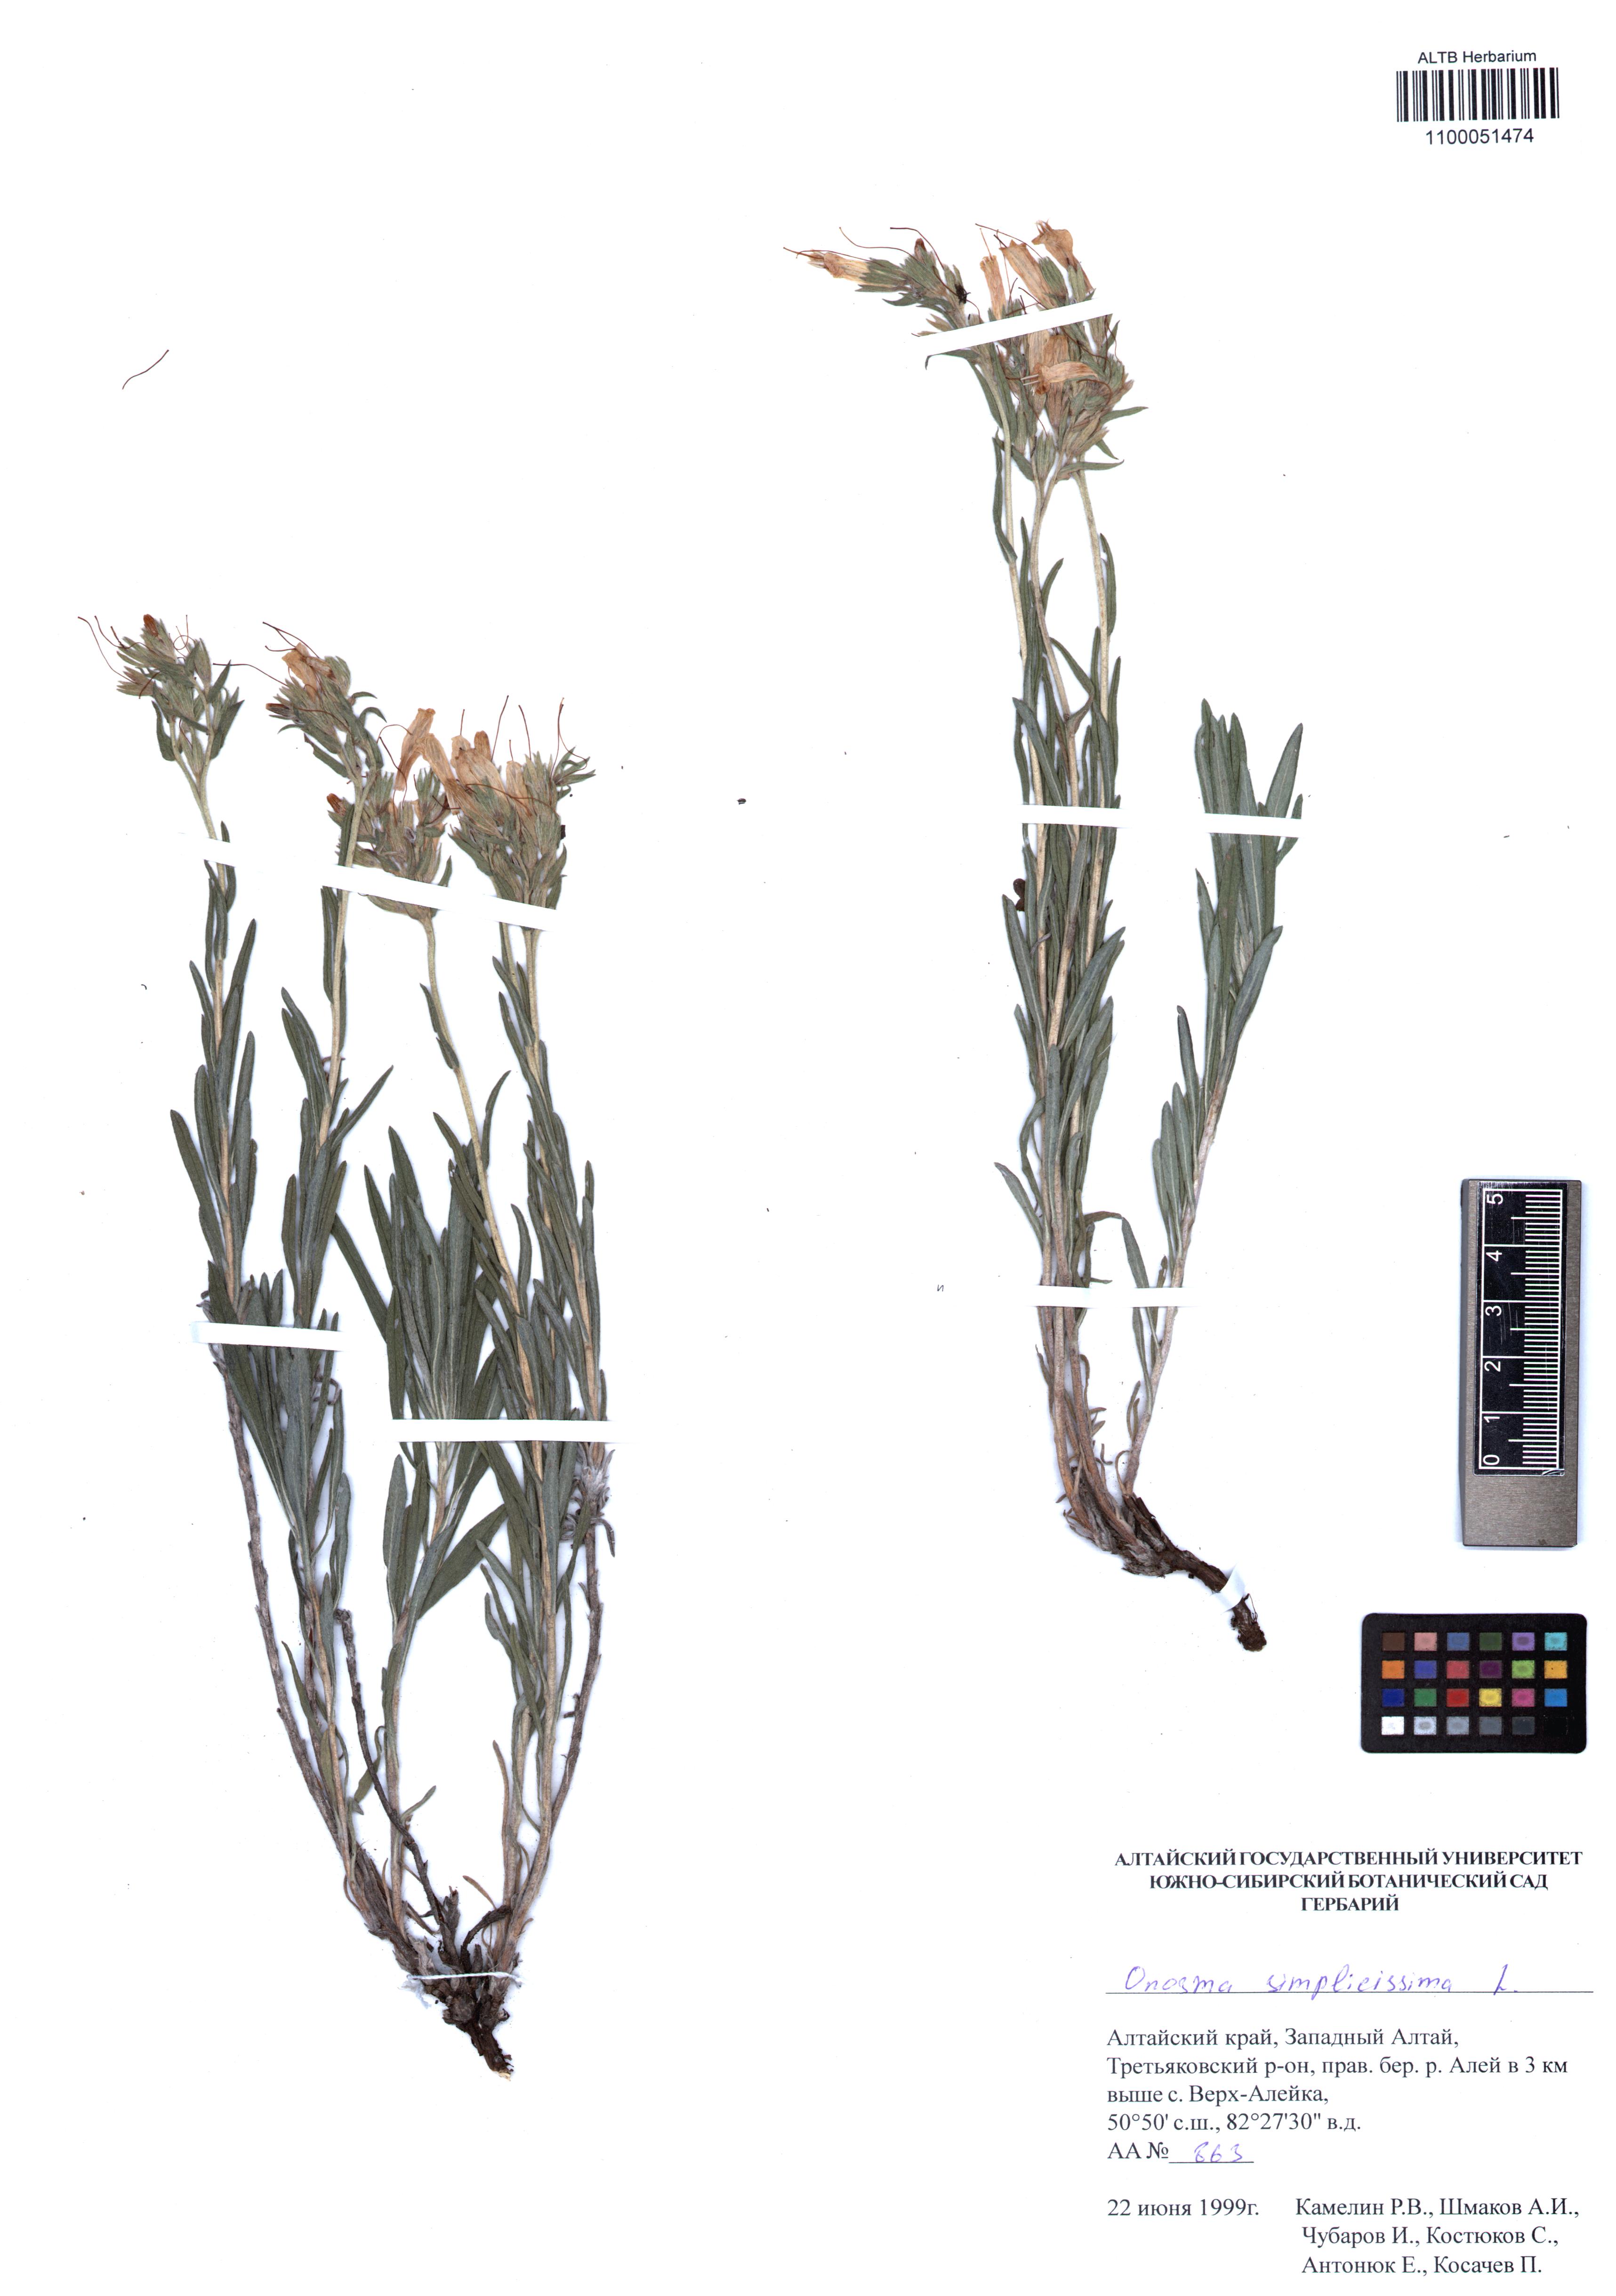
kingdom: Plantae
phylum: Tracheophyta
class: Magnoliopsida
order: Boraginales
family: Boraginaceae
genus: Onosma
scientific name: Onosma simplicissima
